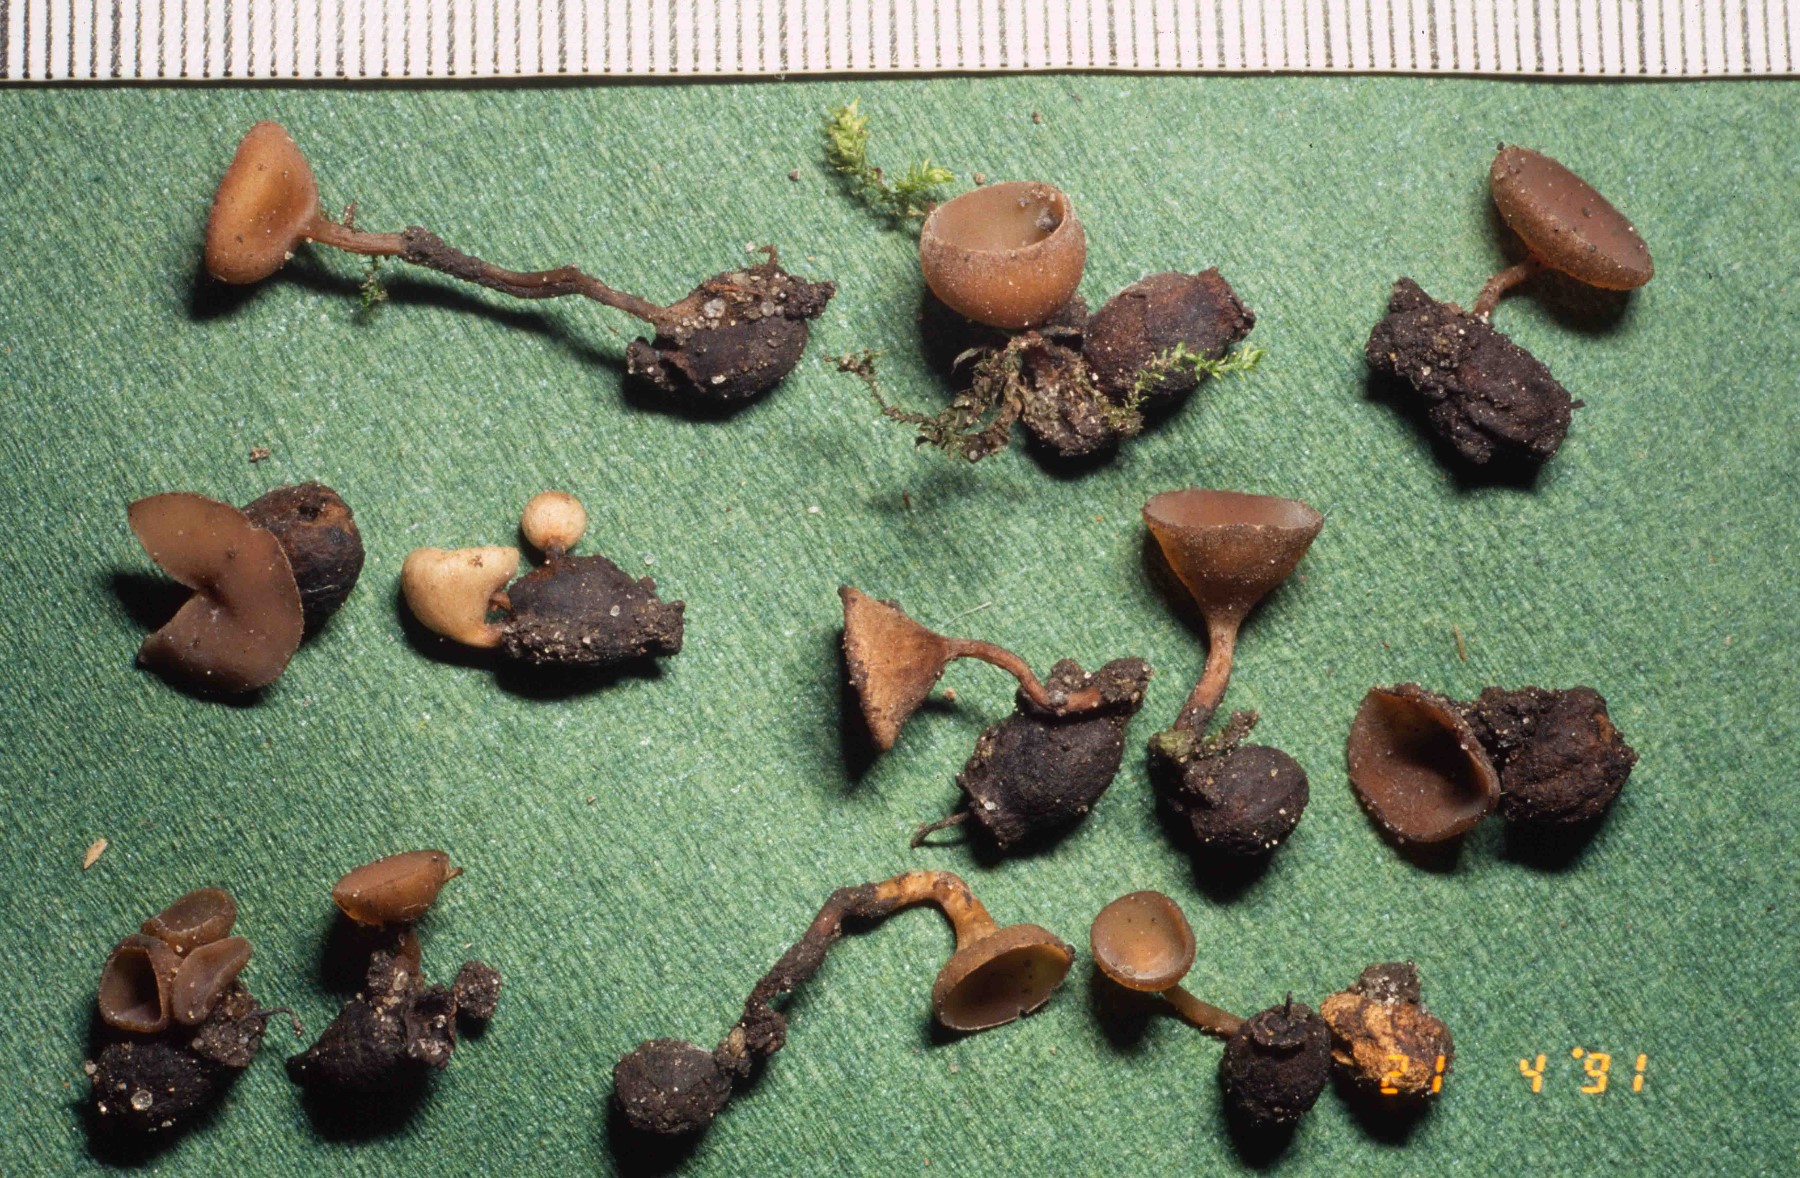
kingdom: Fungi
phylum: Ascomycota
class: Leotiomycetes
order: Helotiales
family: Sclerotiniaceae
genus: Monilinia
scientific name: Monilinia johnsonii
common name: tjørnebær-knoldskive
